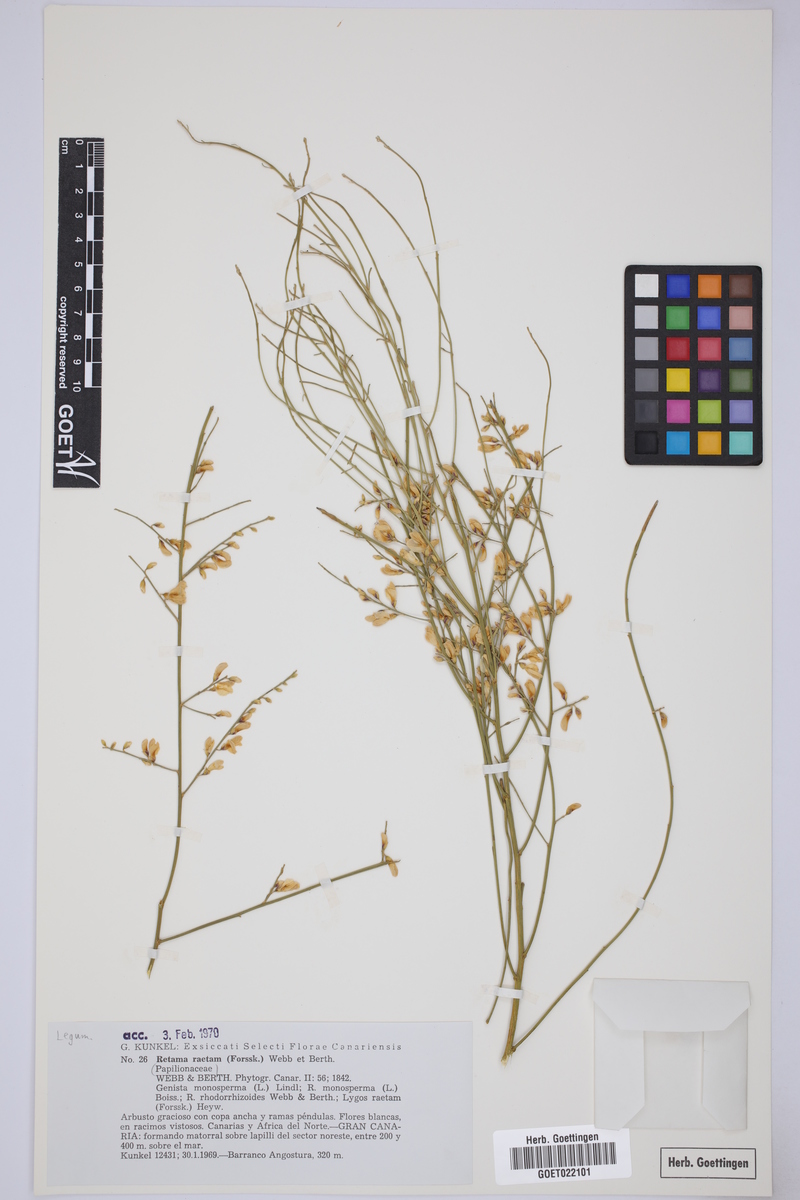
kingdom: Plantae
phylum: Tracheophyta
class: Magnoliopsida
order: Fabales
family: Fabaceae
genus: Retama
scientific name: Retama raetam
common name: Retem
